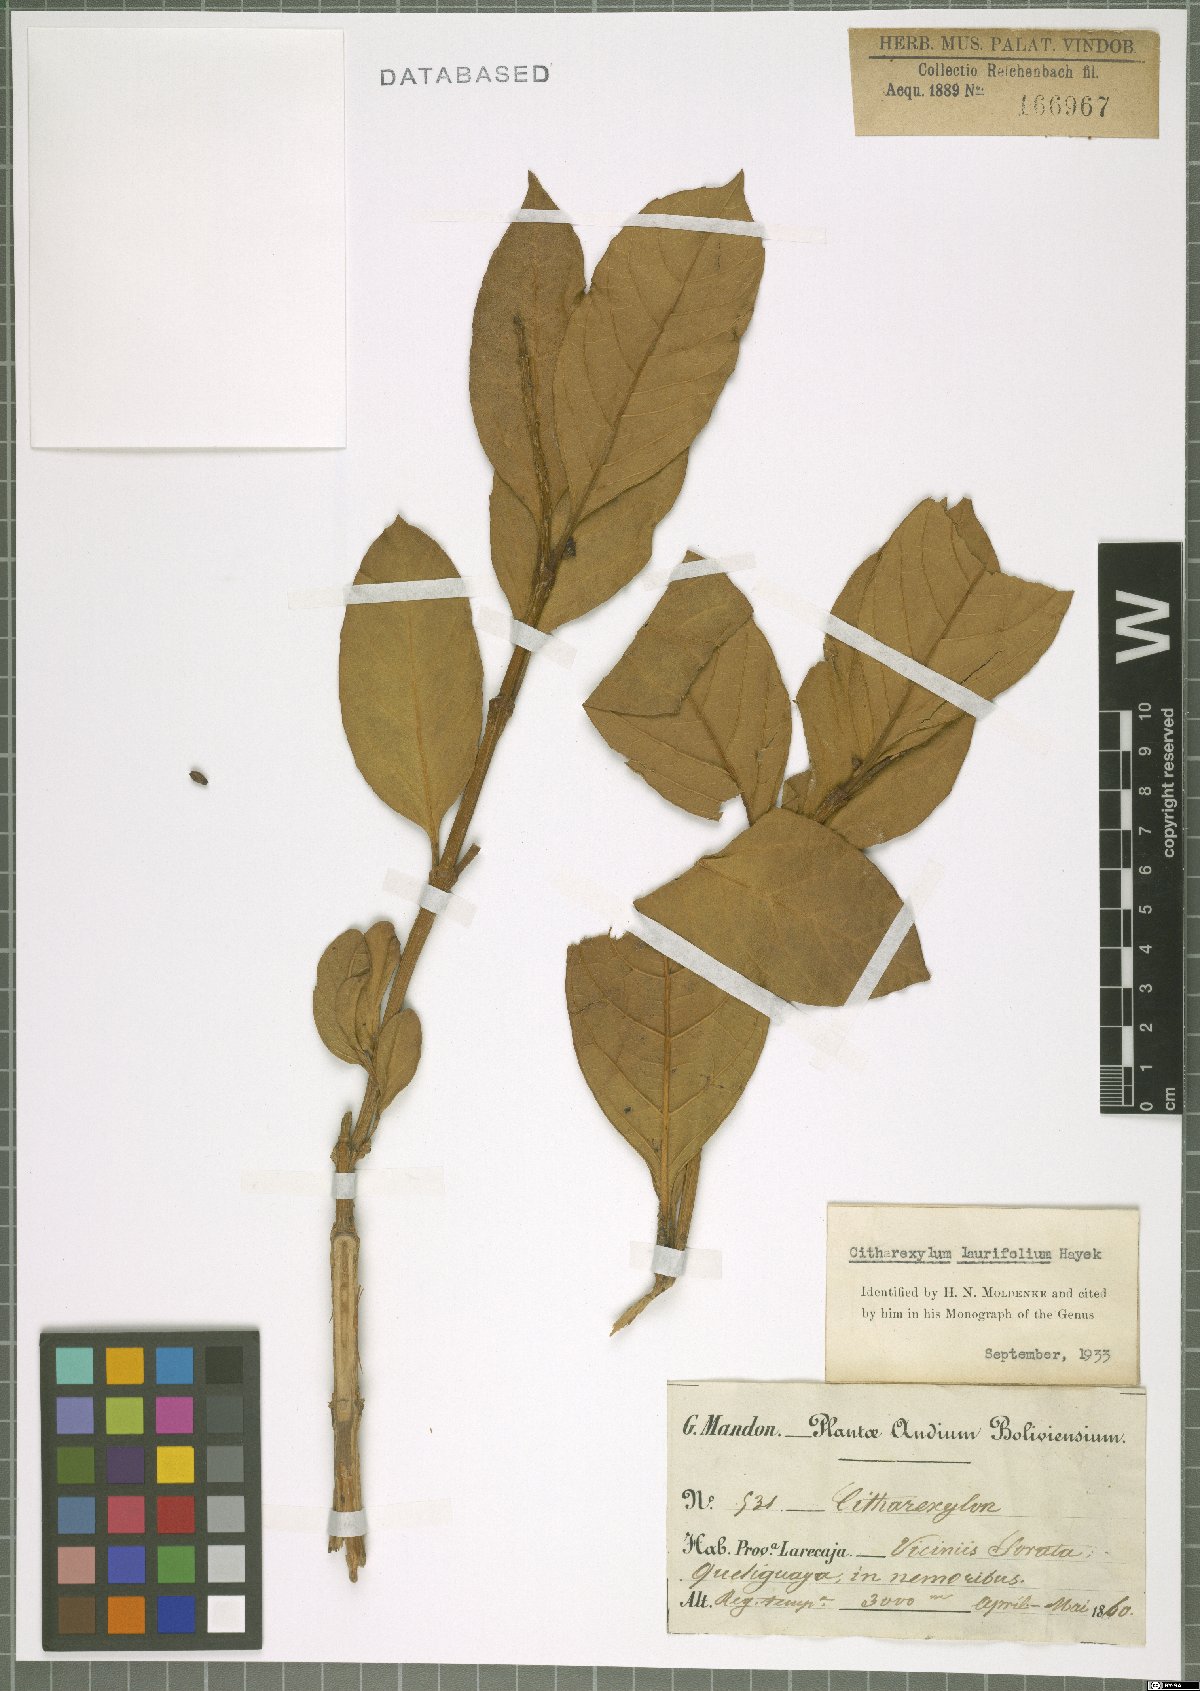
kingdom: Plantae
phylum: Tracheophyta
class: Magnoliopsida
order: Lamiales
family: Verbenaceae
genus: Citharexylum
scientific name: Citharexylum laurifolium
